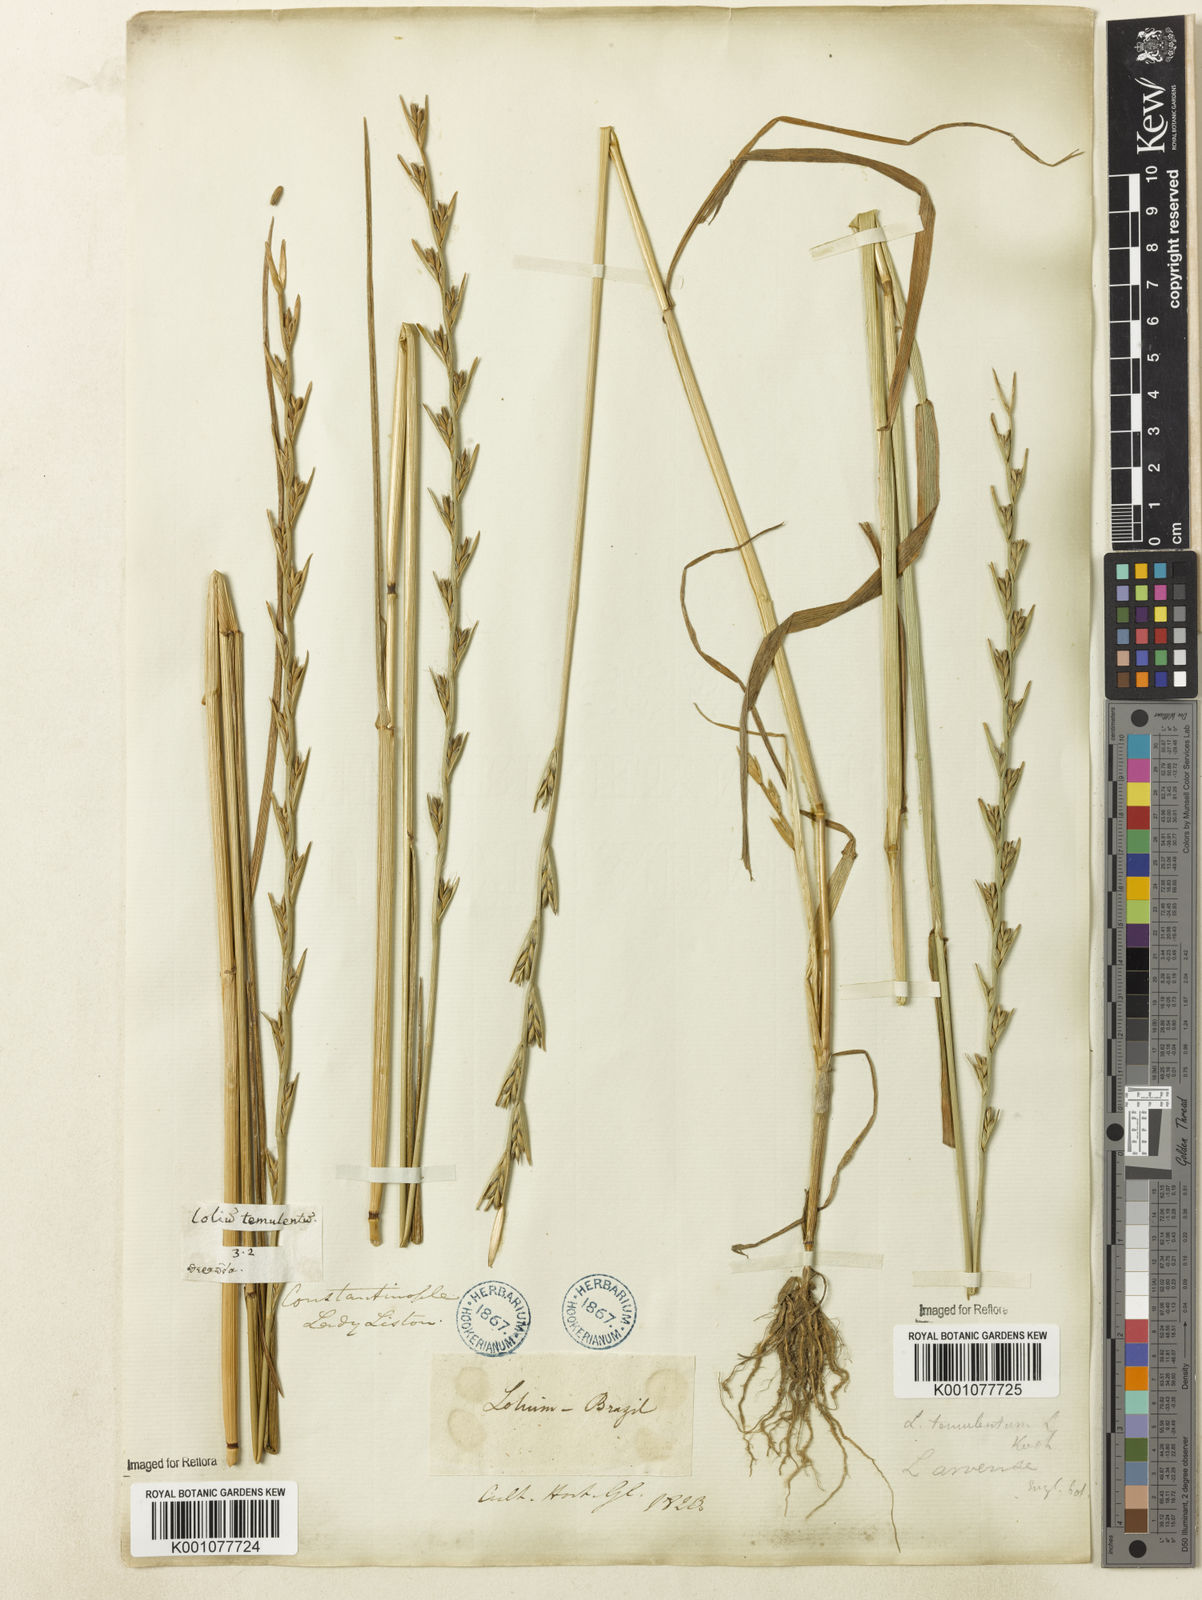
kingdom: Plantae
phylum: Tracheophyta
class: Liliopsida
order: Poales
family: Poaceae
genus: Lolium
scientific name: Lolium temulentum
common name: Darnel
